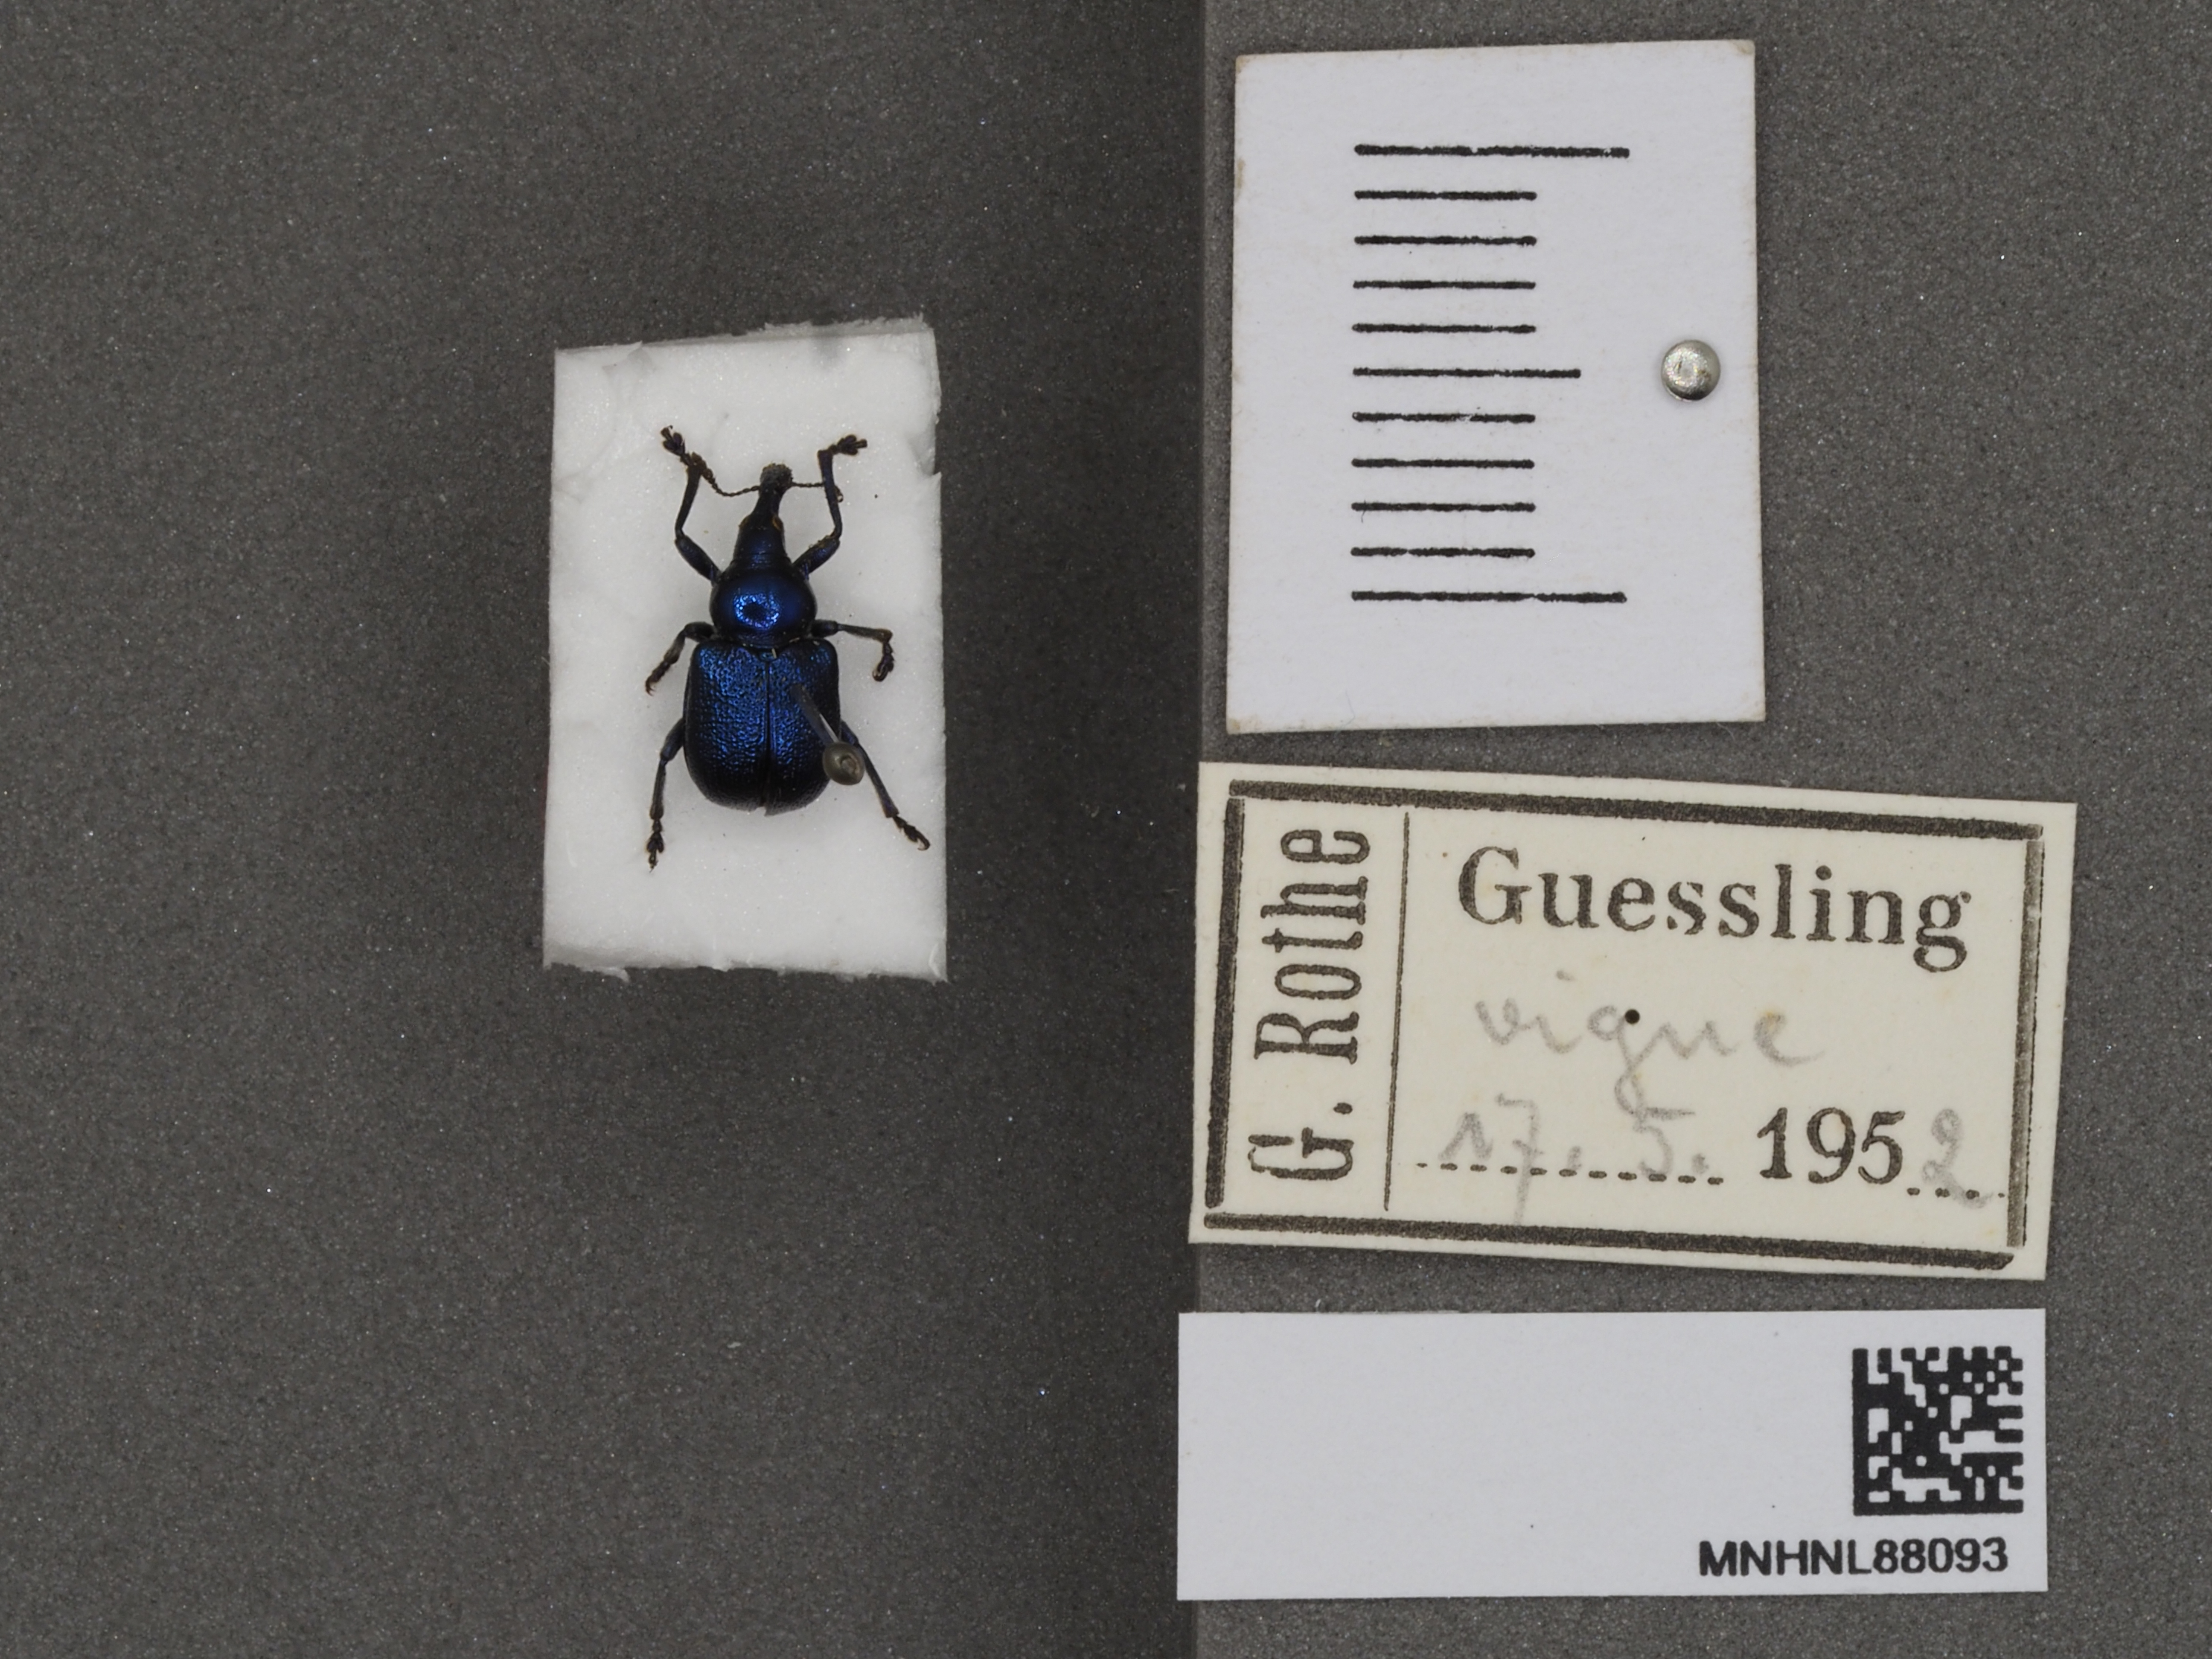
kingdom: Animalia
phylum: Arthropoda
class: Insecta
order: Coleoptera
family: Attelabidae
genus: Byctiscus
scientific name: Byctiscus betulae
